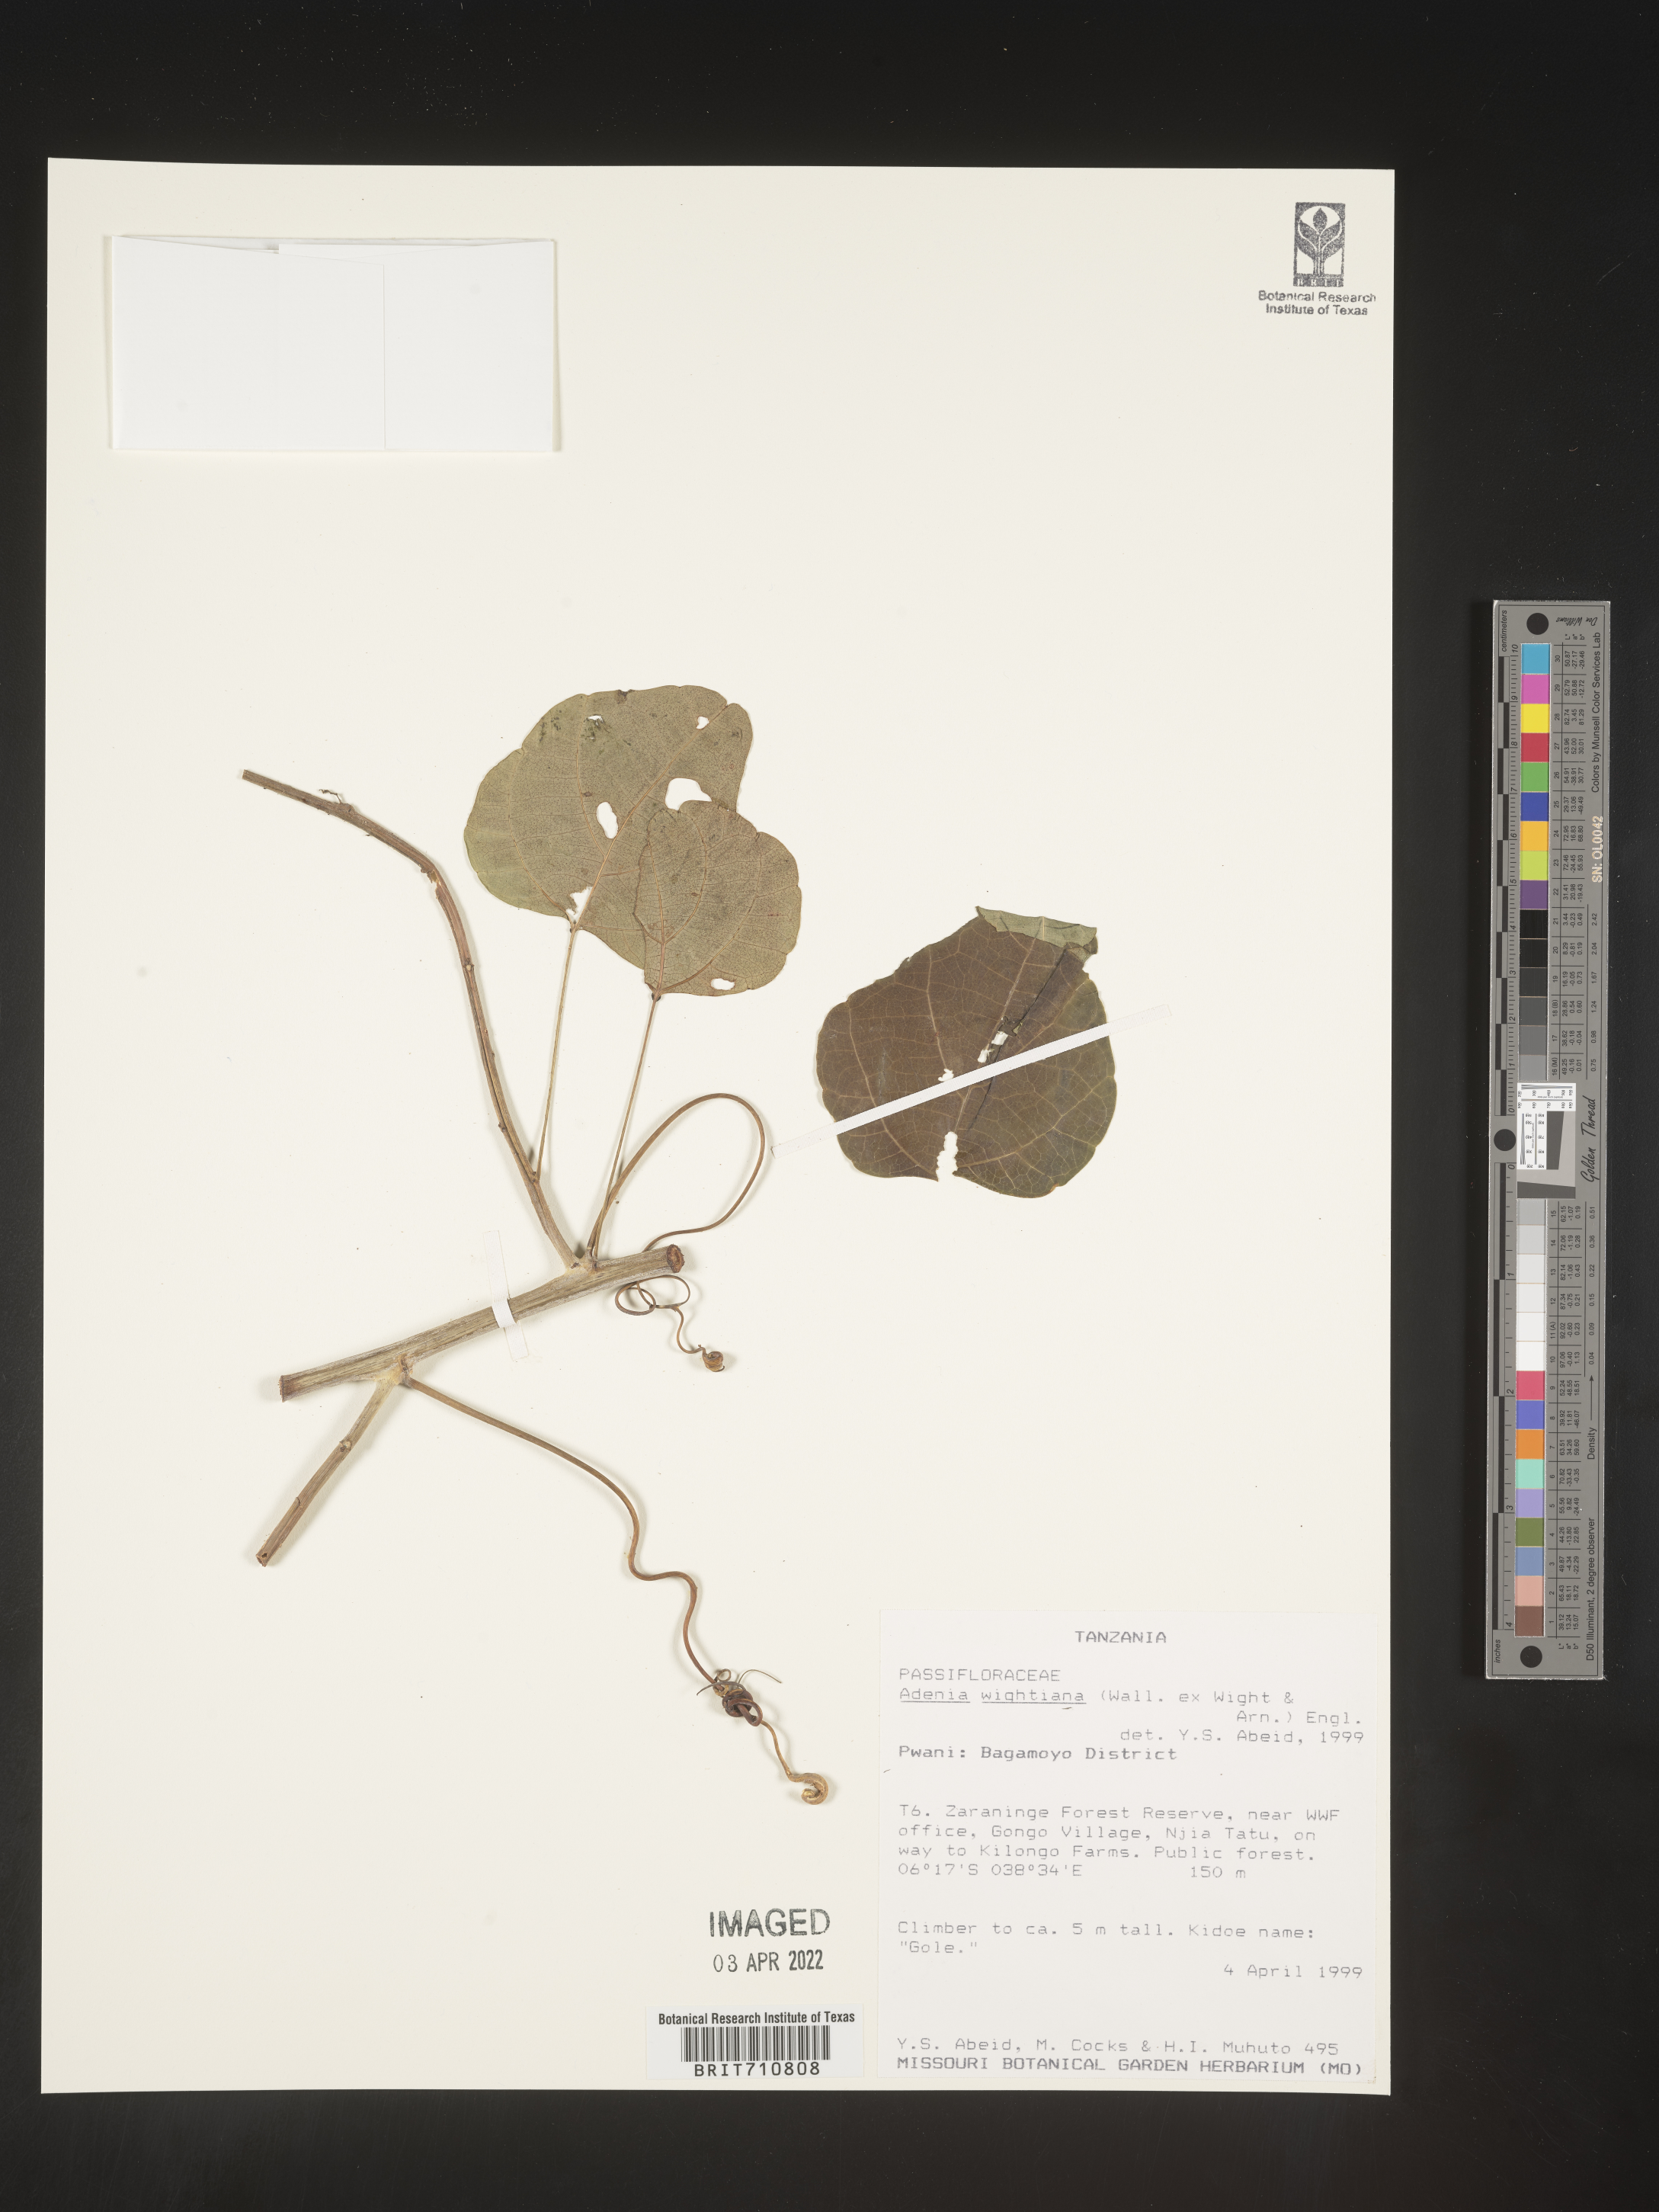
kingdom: Plantae
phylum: Tracheophyta
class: Magnoliopsida
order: Malpighiales
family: Passifloraceae
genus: Adenia
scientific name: Adenia
